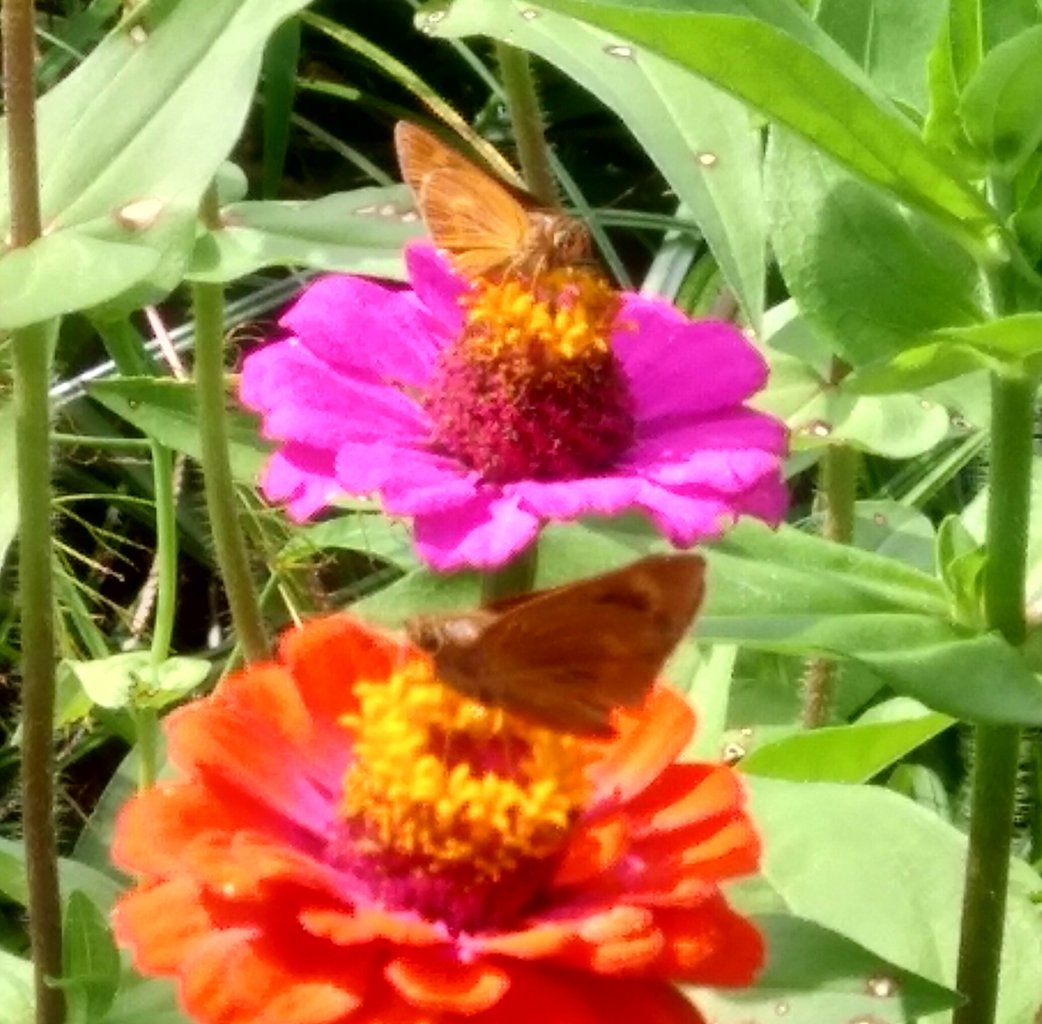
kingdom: Animalia
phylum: Arthropoda
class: Insecta
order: Lepidoptera
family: Hesperiidae
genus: Problema
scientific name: Problema byssus
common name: Byssus Skipper
